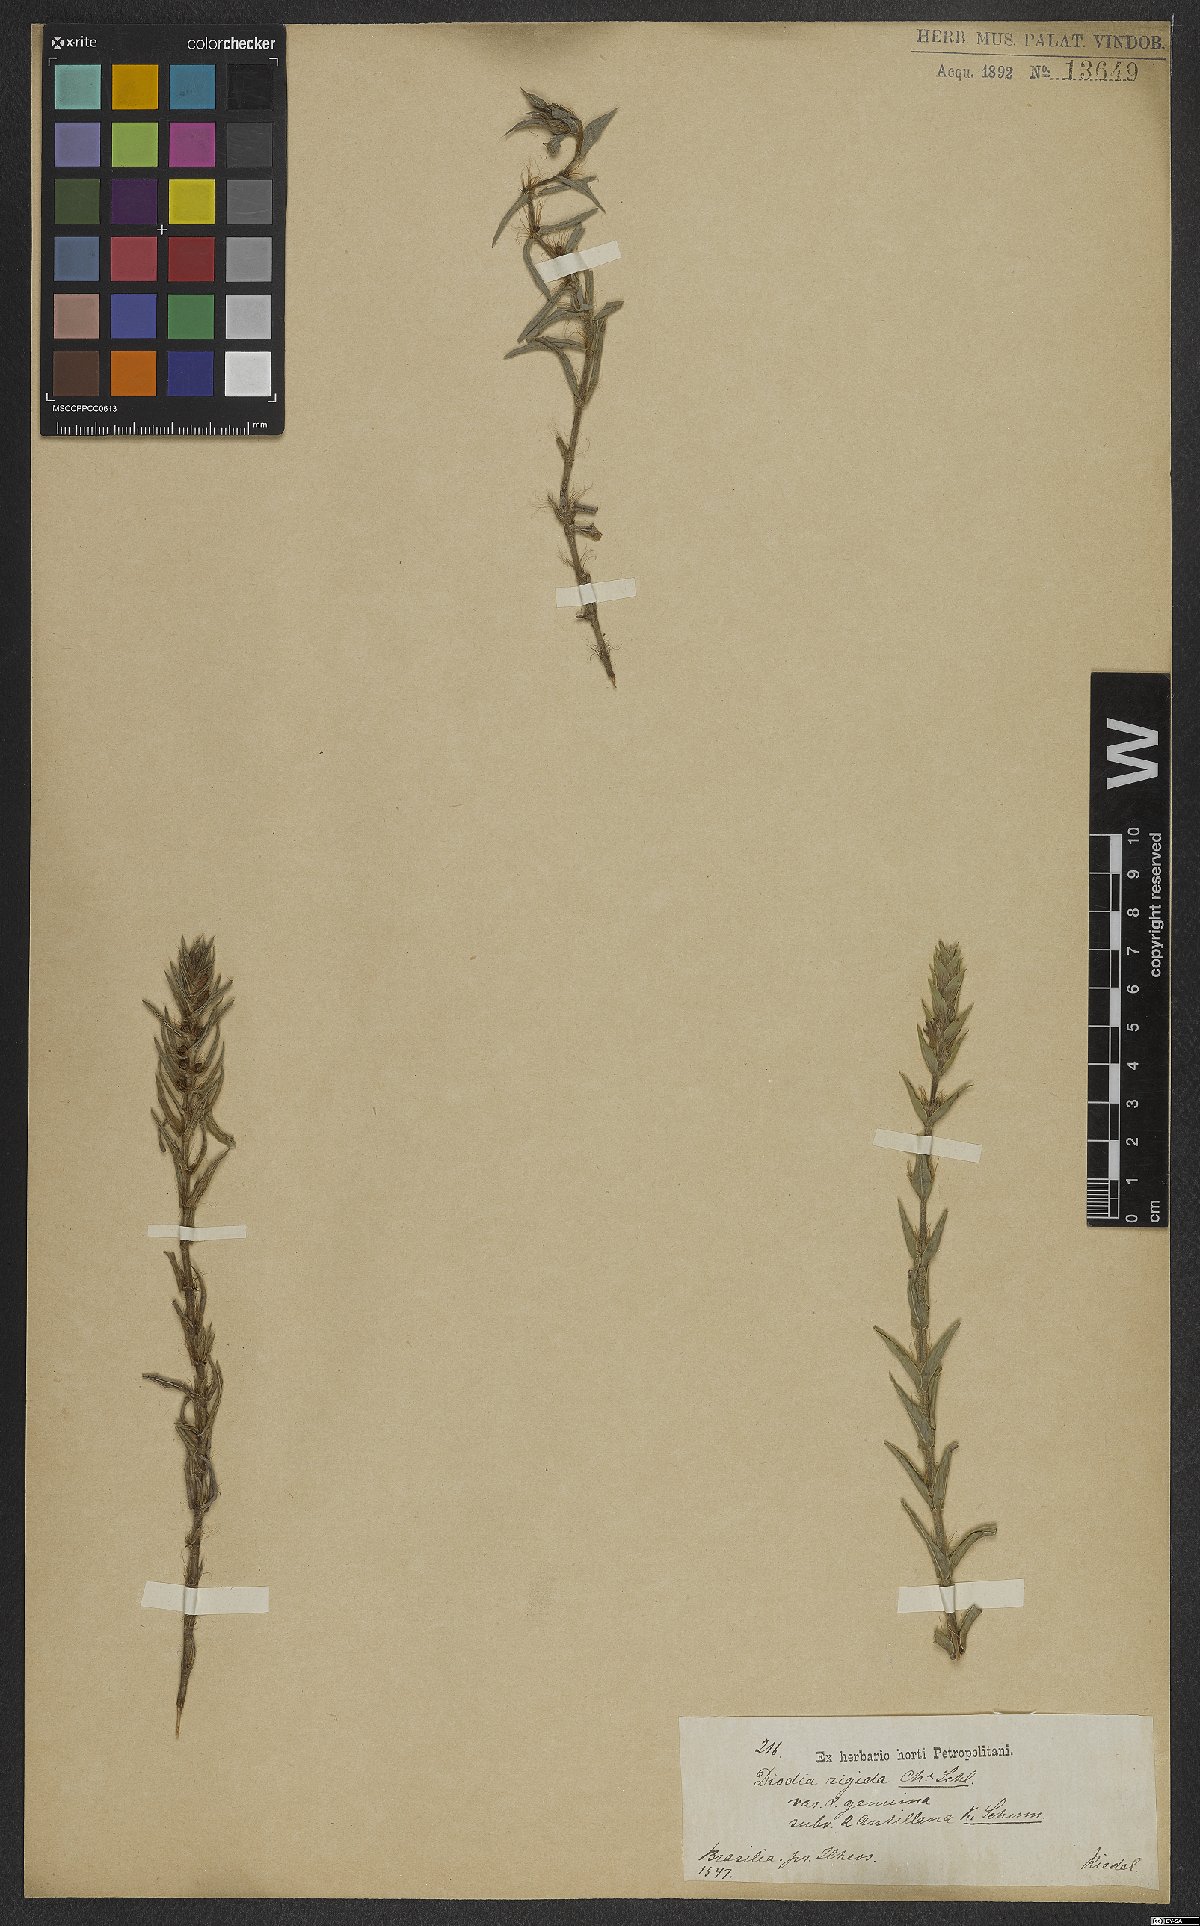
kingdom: Plantae
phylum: Tracheophyta
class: Magnoliopsida
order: Gentianales
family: Rubiaceae
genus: Hexasepalum
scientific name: Hexasepalum apiculatum
